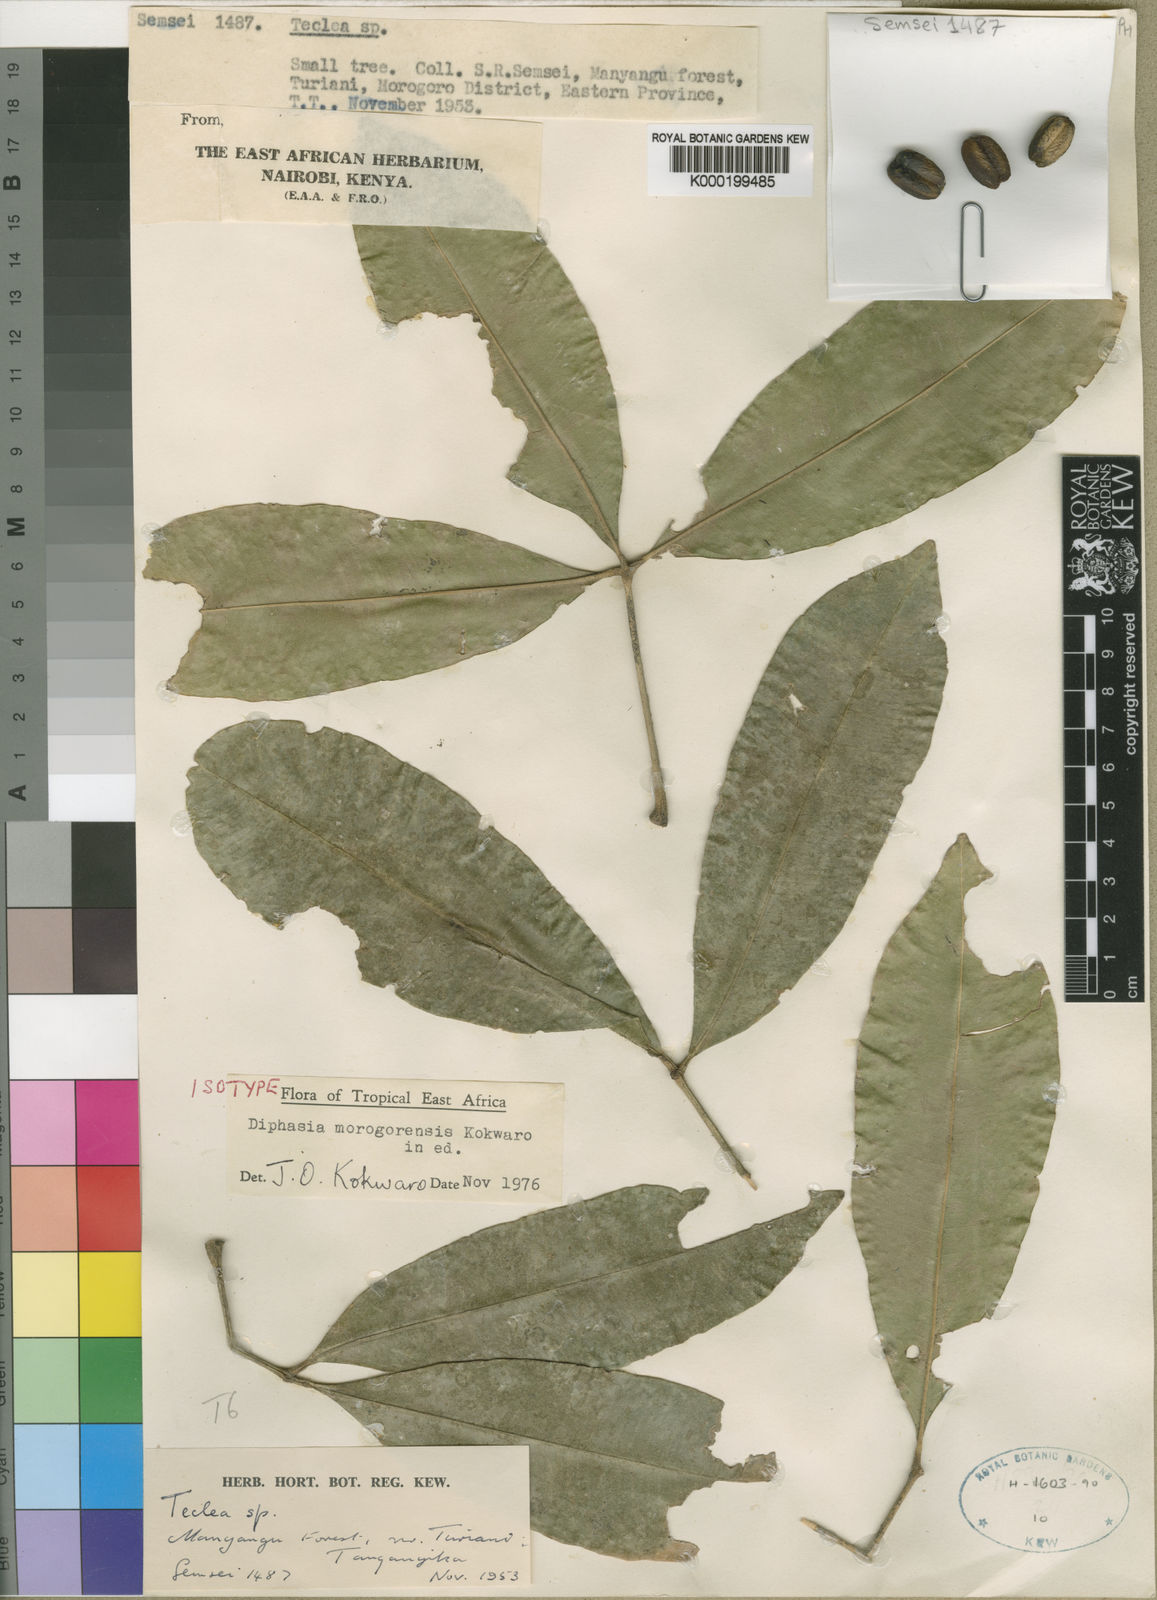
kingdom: Plantae
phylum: Tracheophyta
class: Magnoliopsida
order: Sapindales
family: Rutaceae
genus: Vepris
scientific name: Vepris morogorensis
